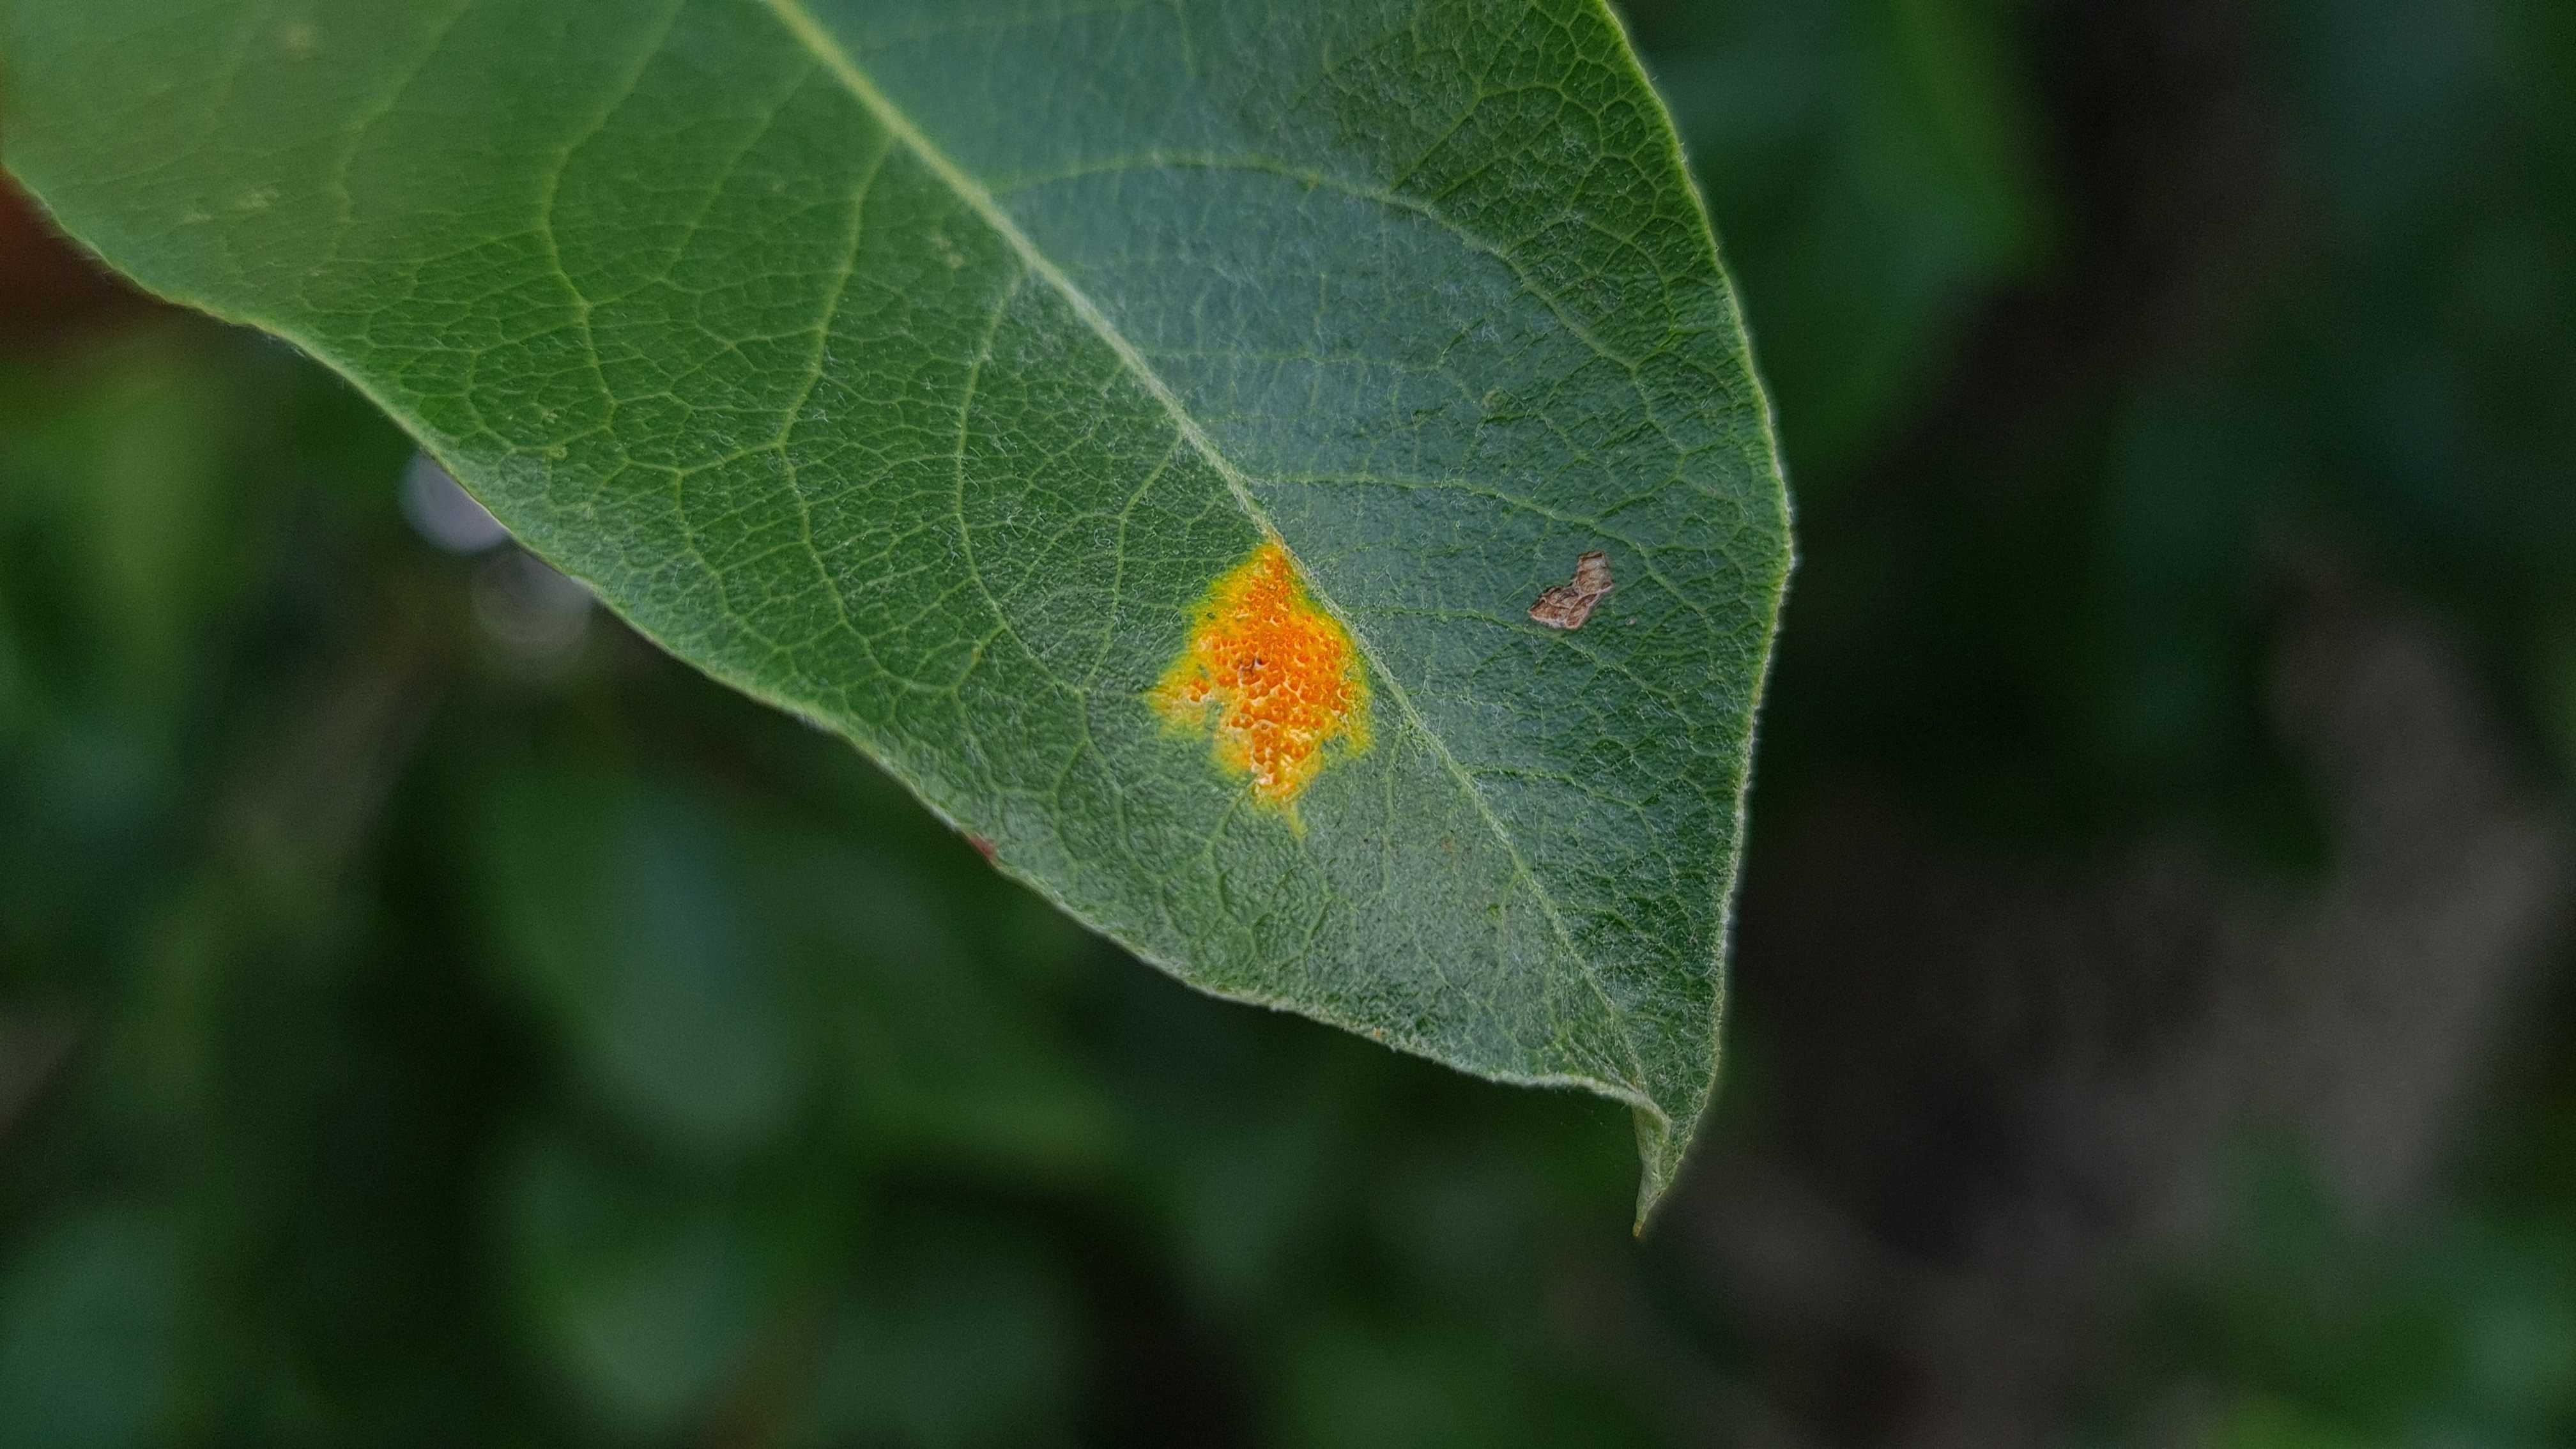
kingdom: Fungi
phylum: Basidiomycota
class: Pucciniomycetes
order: Pucciniales
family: Gymnosporangiaceae
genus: Gymnosporangium
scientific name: Gymnosporangium sabinae
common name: pæregitter-bævrerust
